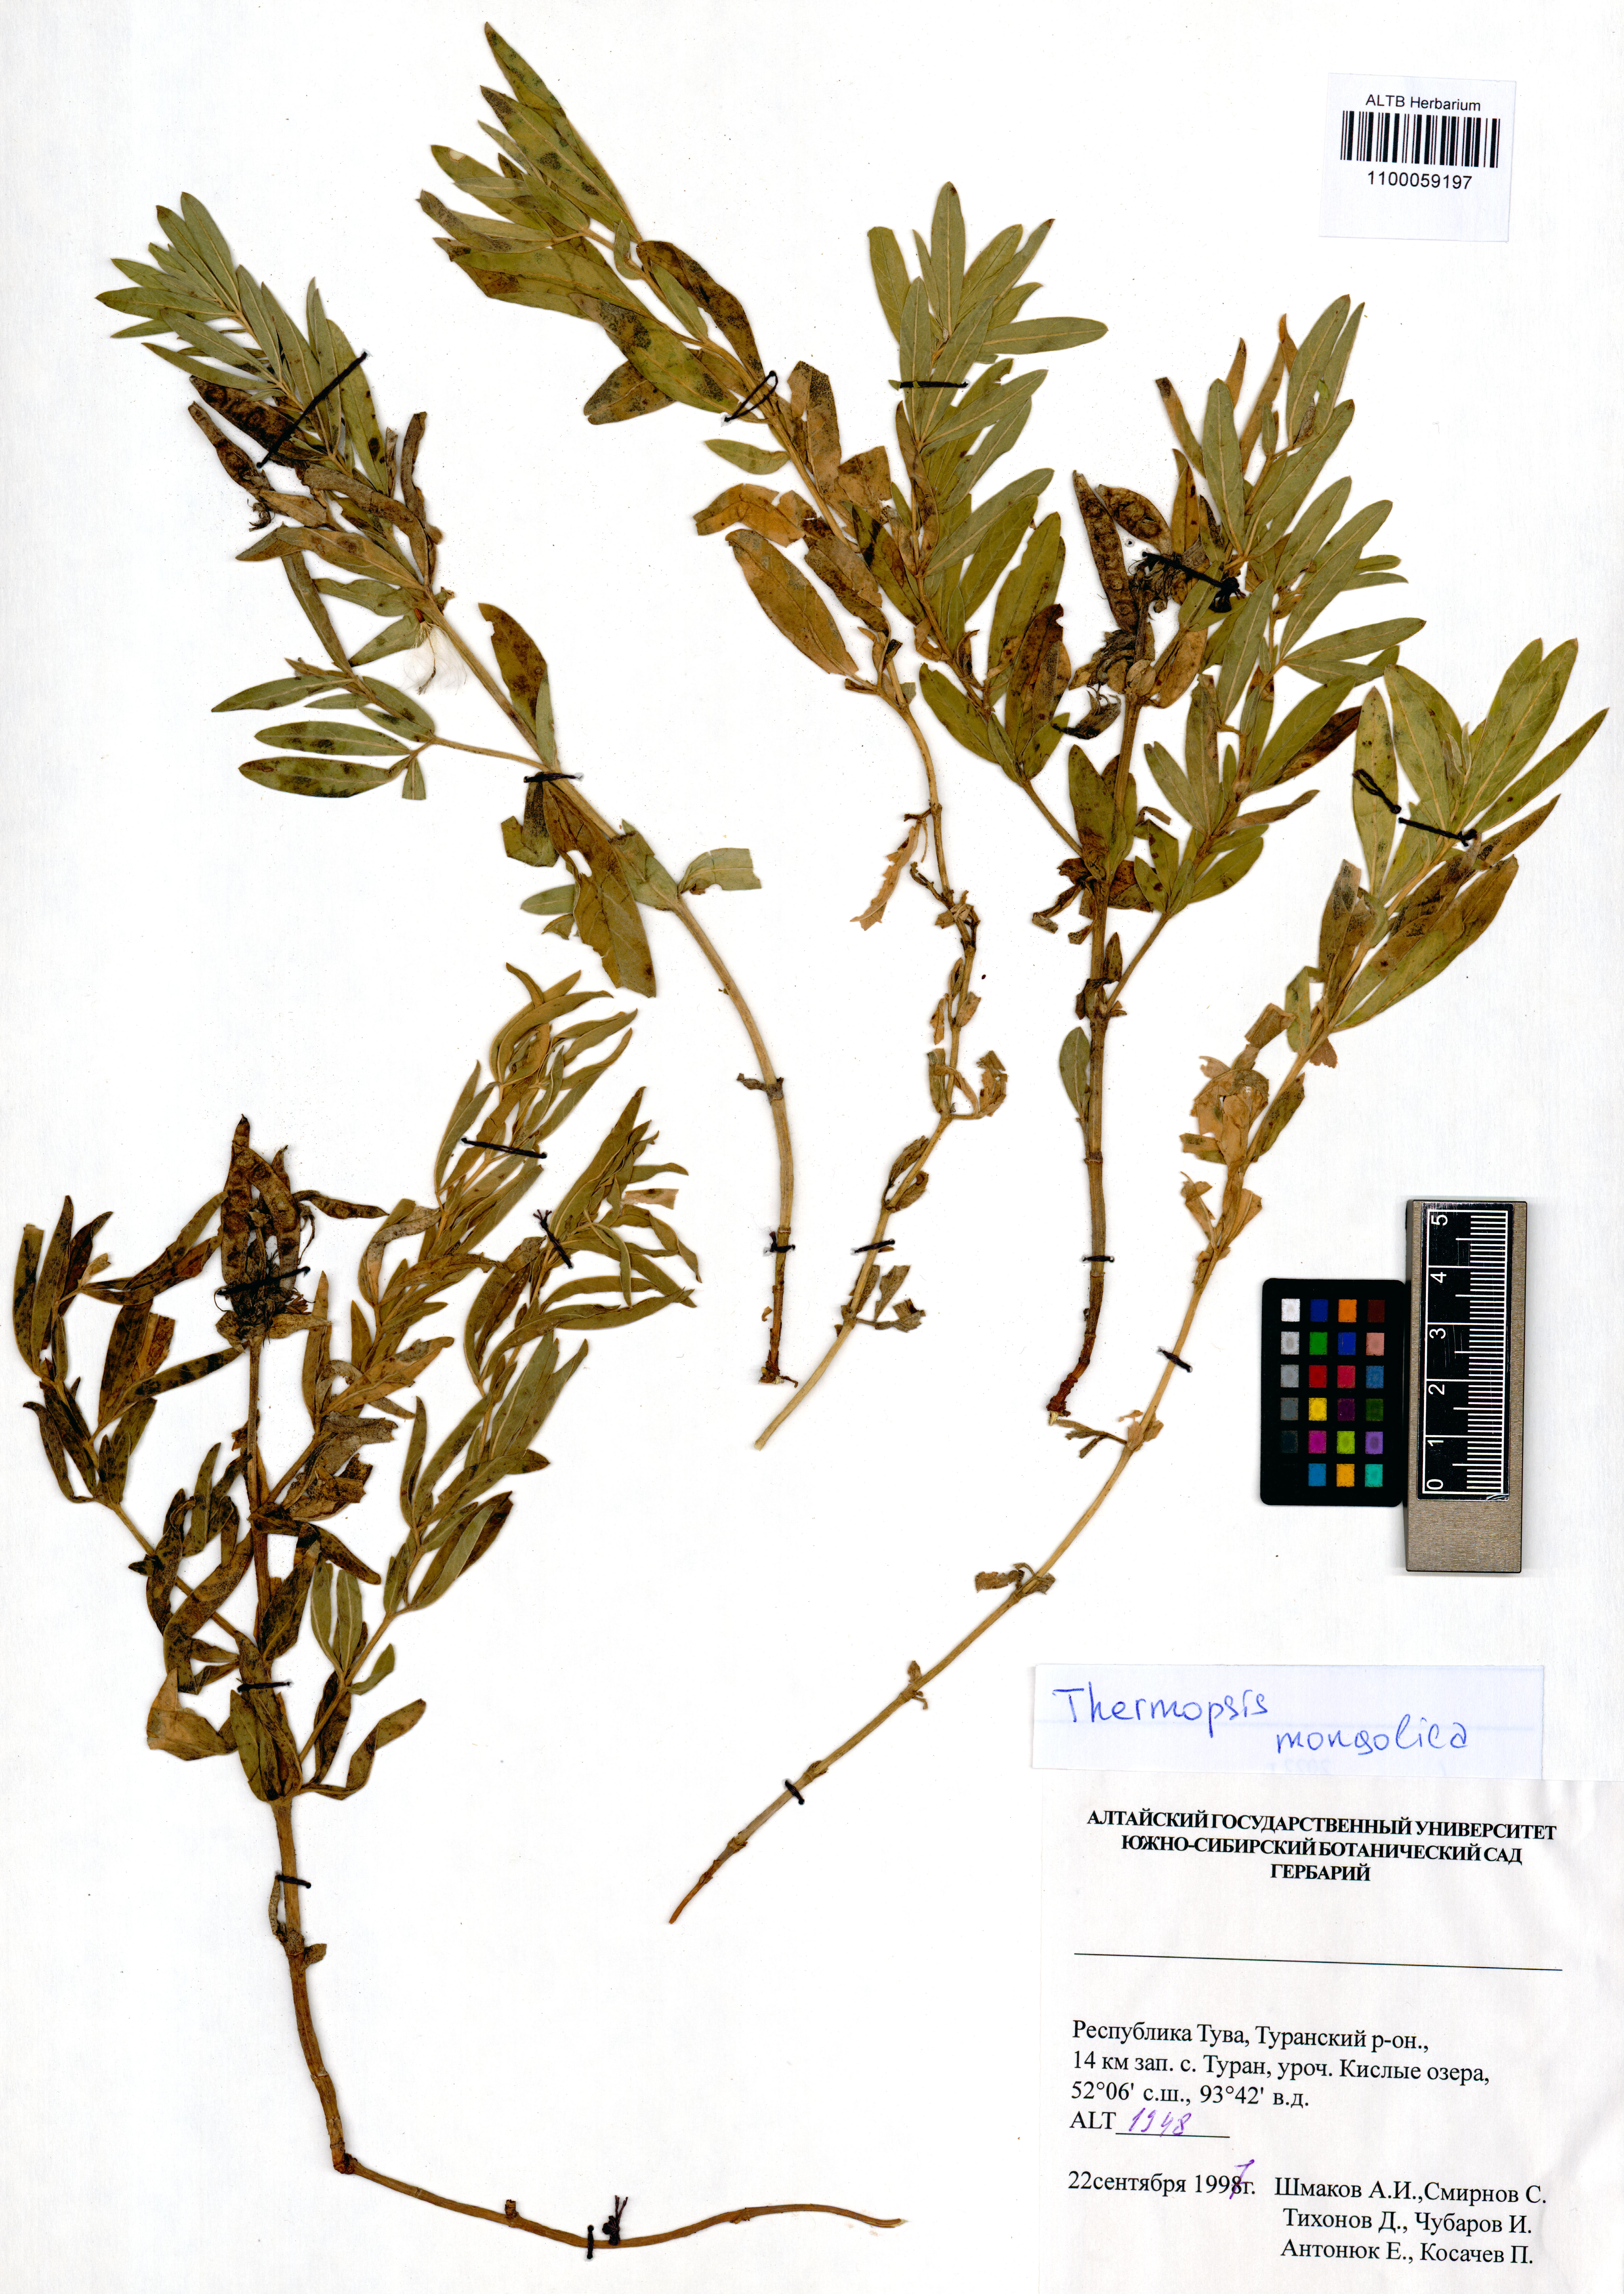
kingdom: Plantae
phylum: Tracheophyta
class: Magnoliopsida
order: Fabales
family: Fabaceae
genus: Thermopsis
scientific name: Thermopsis mongolica
